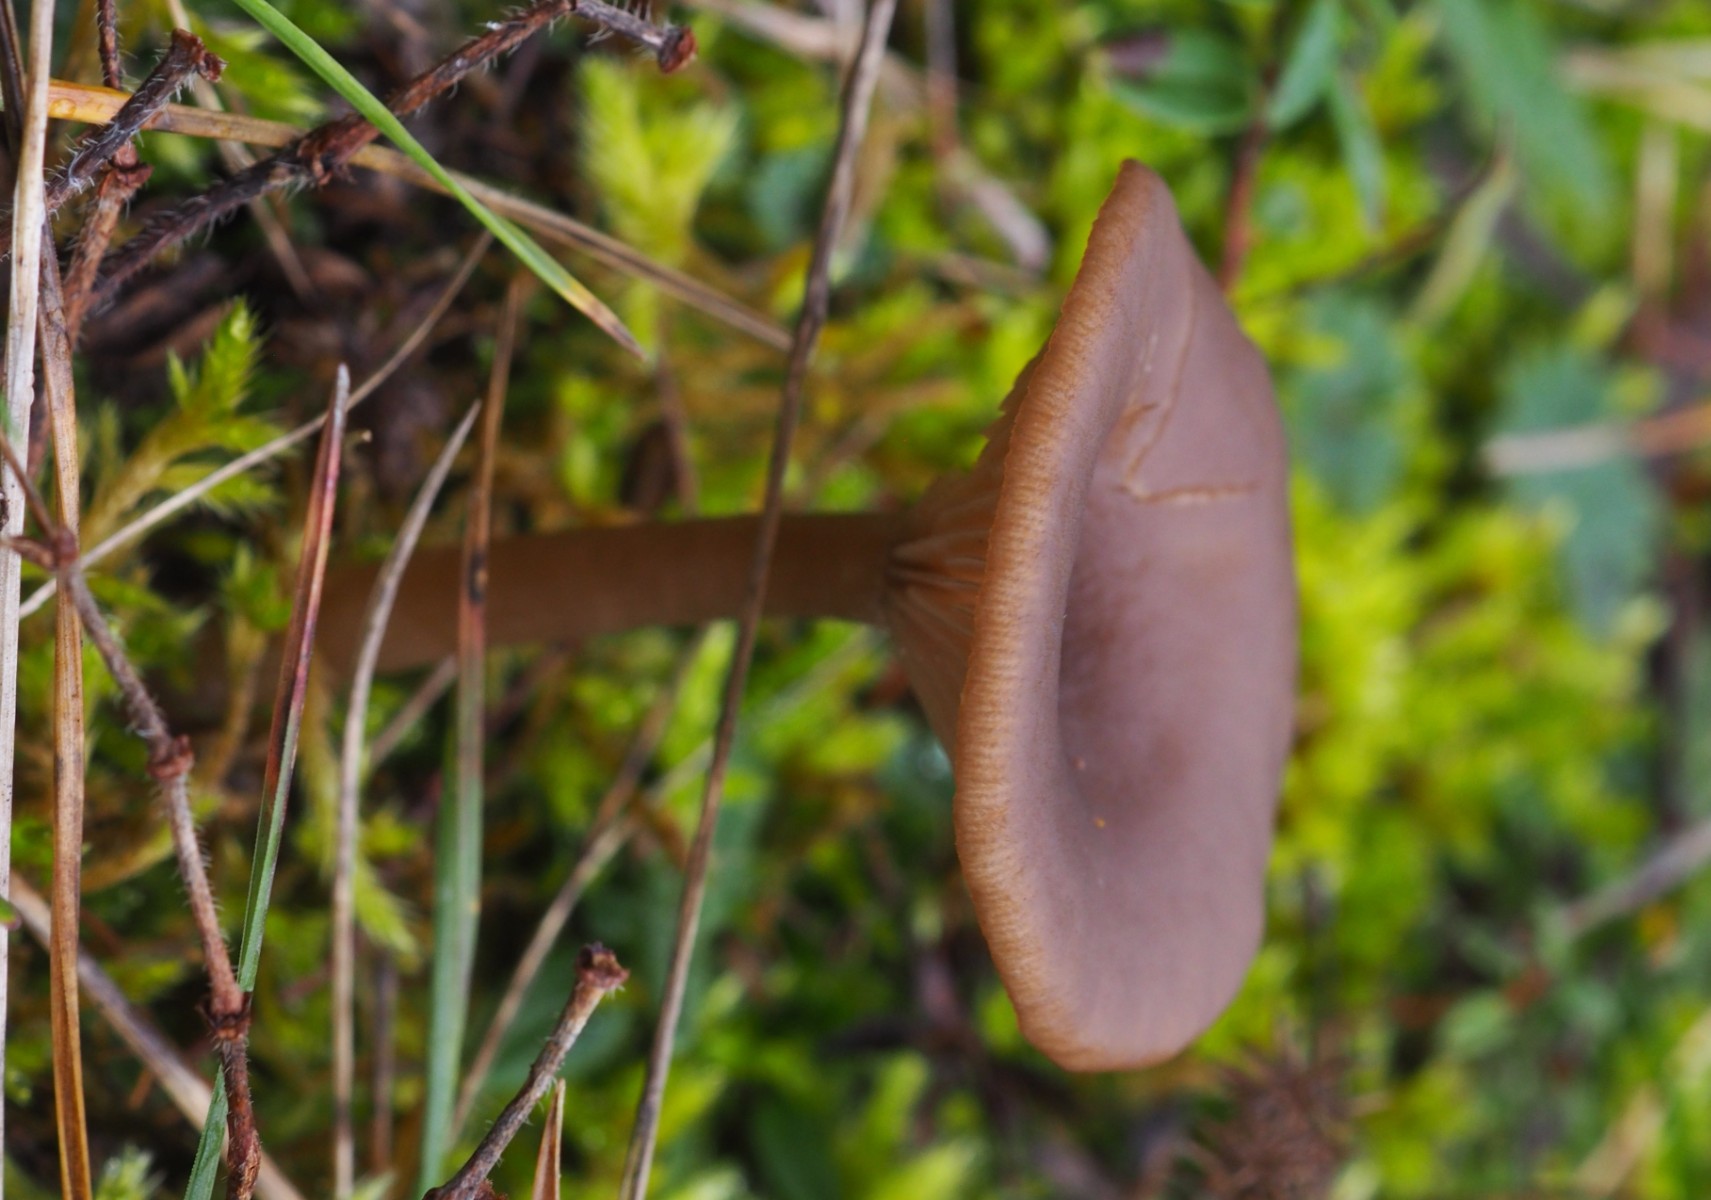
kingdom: Fungi
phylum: Basidiomycota
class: Agaricomycetes
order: Agaricales
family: Pseudoclitocybaceae
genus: Pseudoclitocybe
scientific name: Pseudoclitocybe expallens
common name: lille bægertragthat
